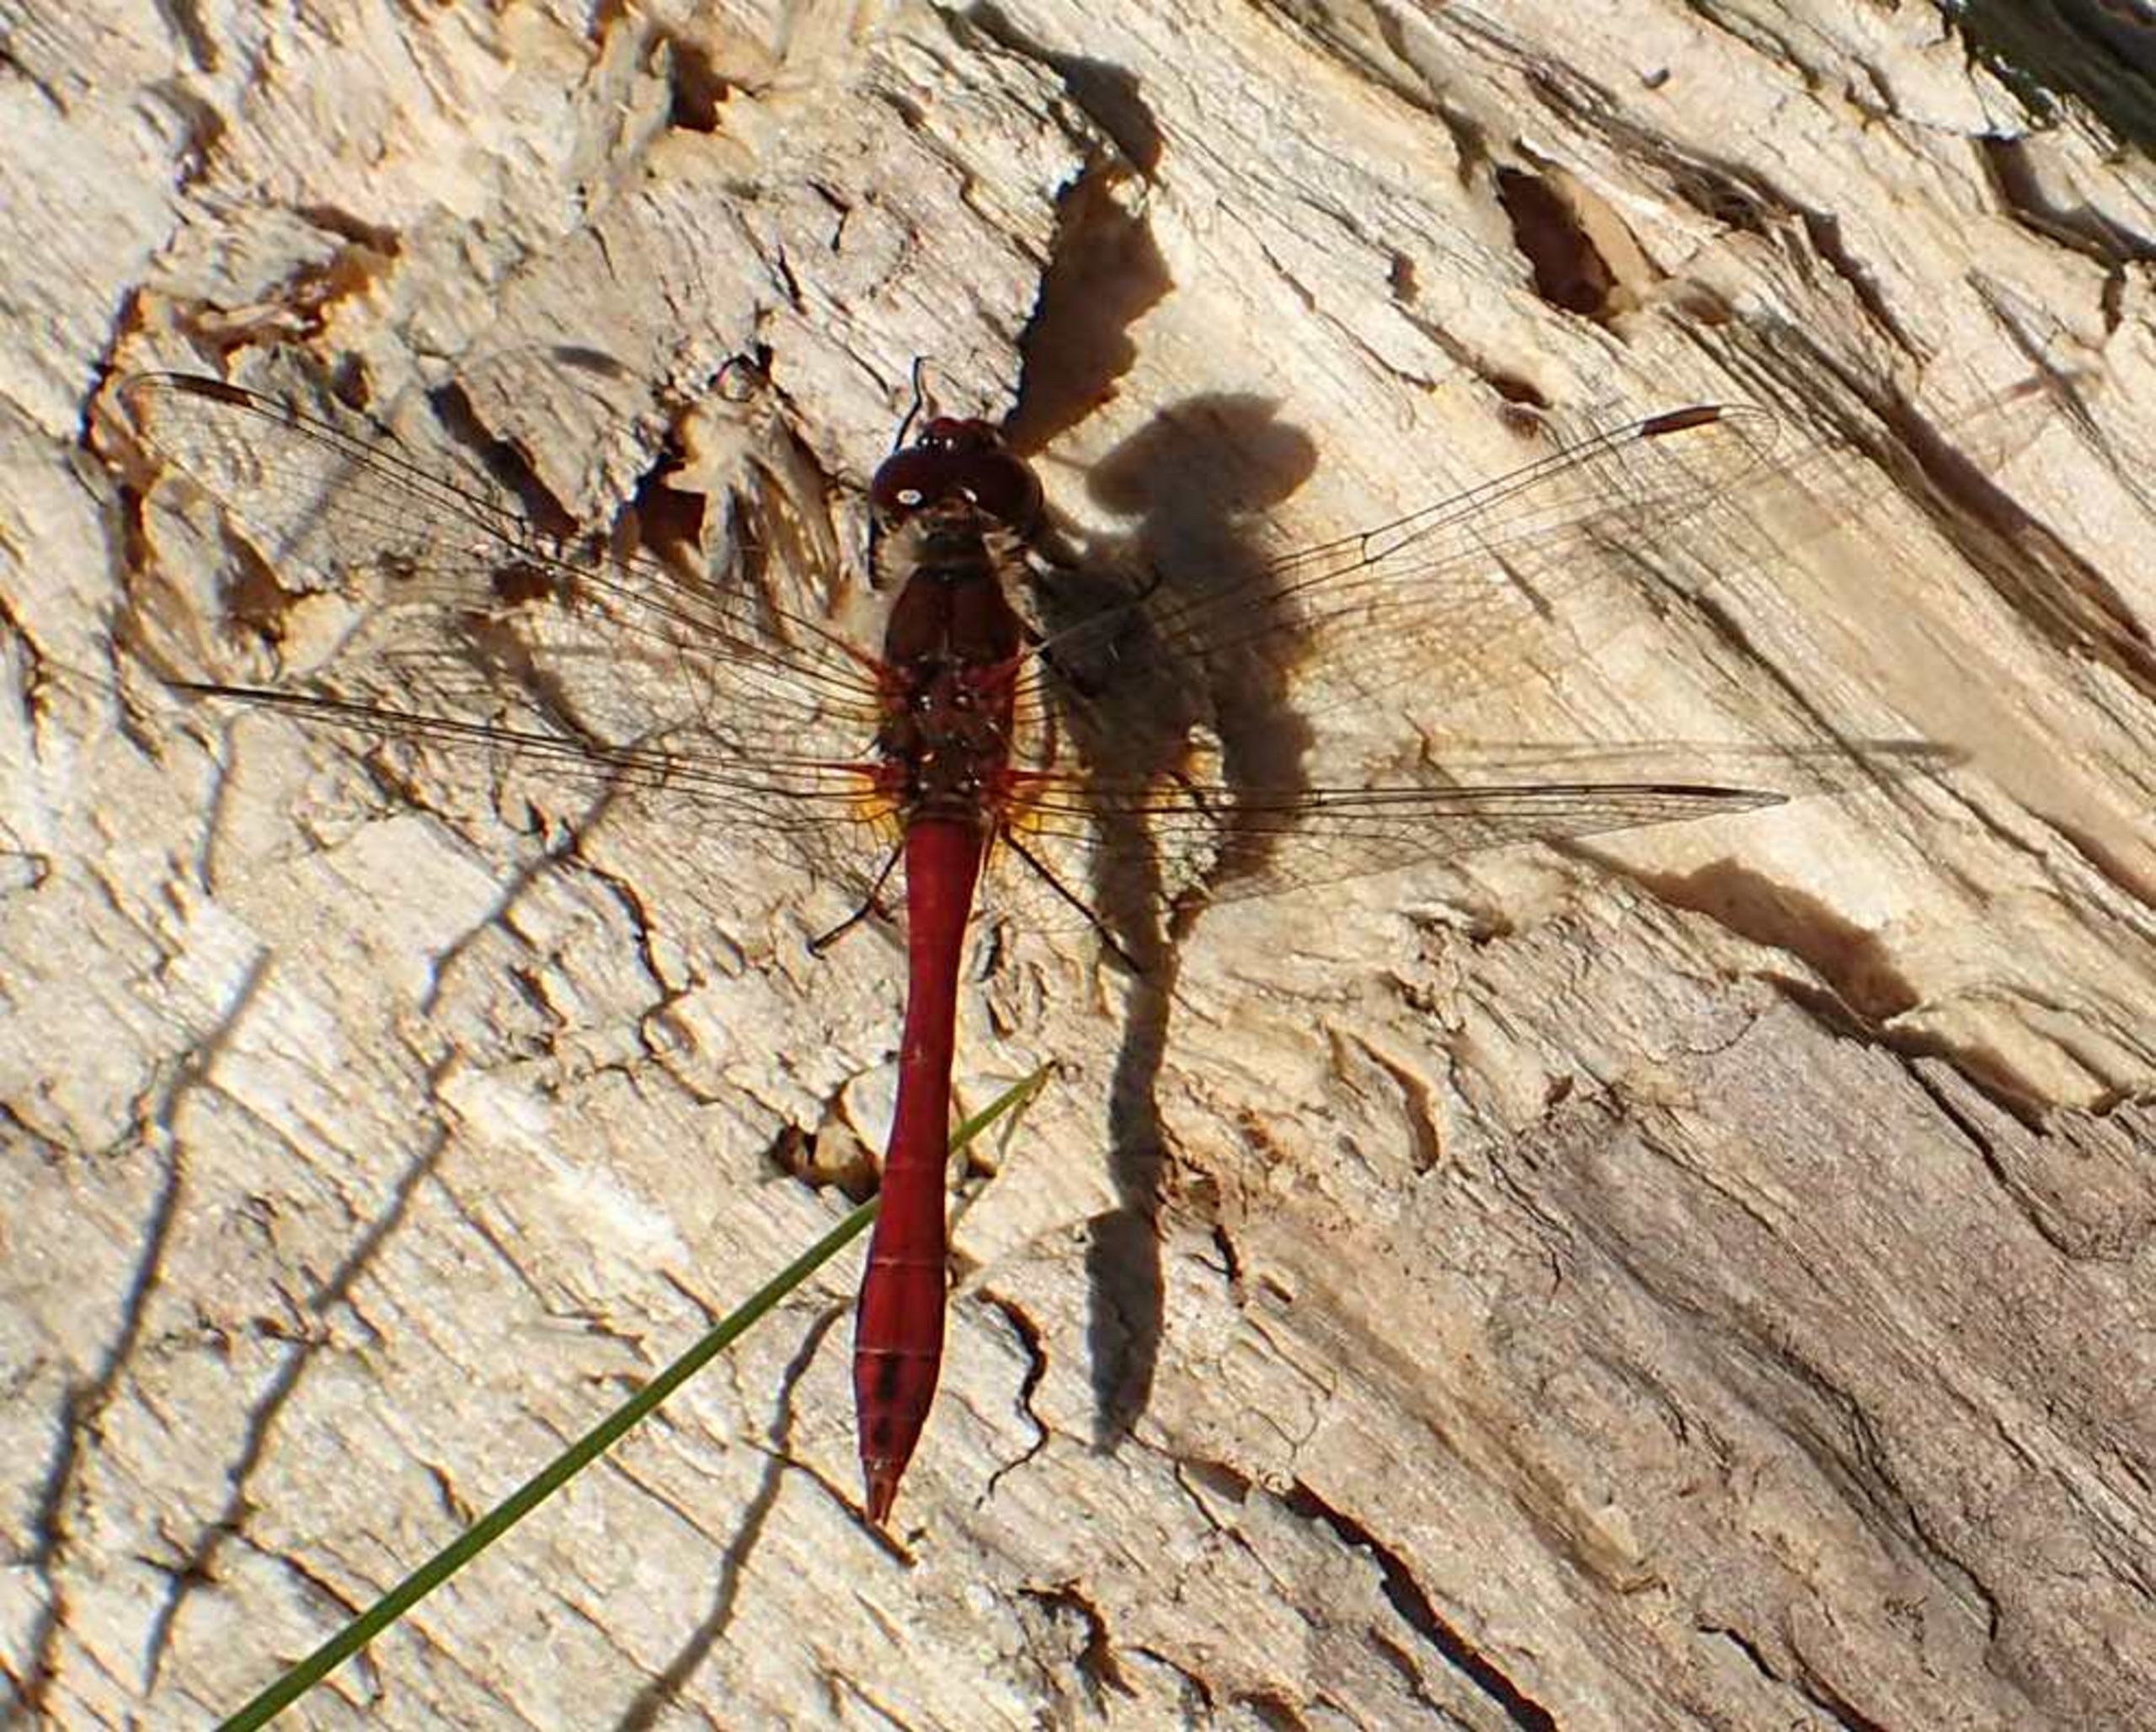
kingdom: Animalia
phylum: Arthropoda
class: Insecta
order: Odonata
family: Libellulidae
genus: Sympetrum
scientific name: Sympetrum sanguineum
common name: Blodrød hedelibel
